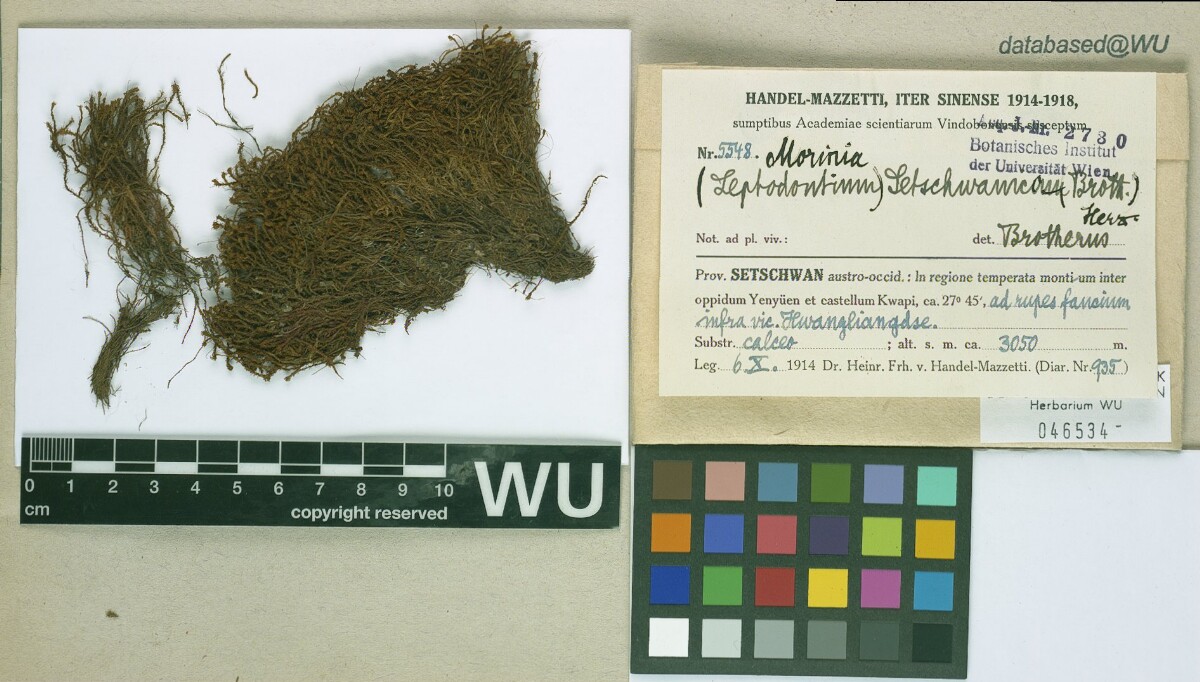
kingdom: Plantae
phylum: Bryophyta
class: Bryopsida
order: Pottiales
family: Pottiaceae
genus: Geheebia
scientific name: Geheebia erosodenticulata
